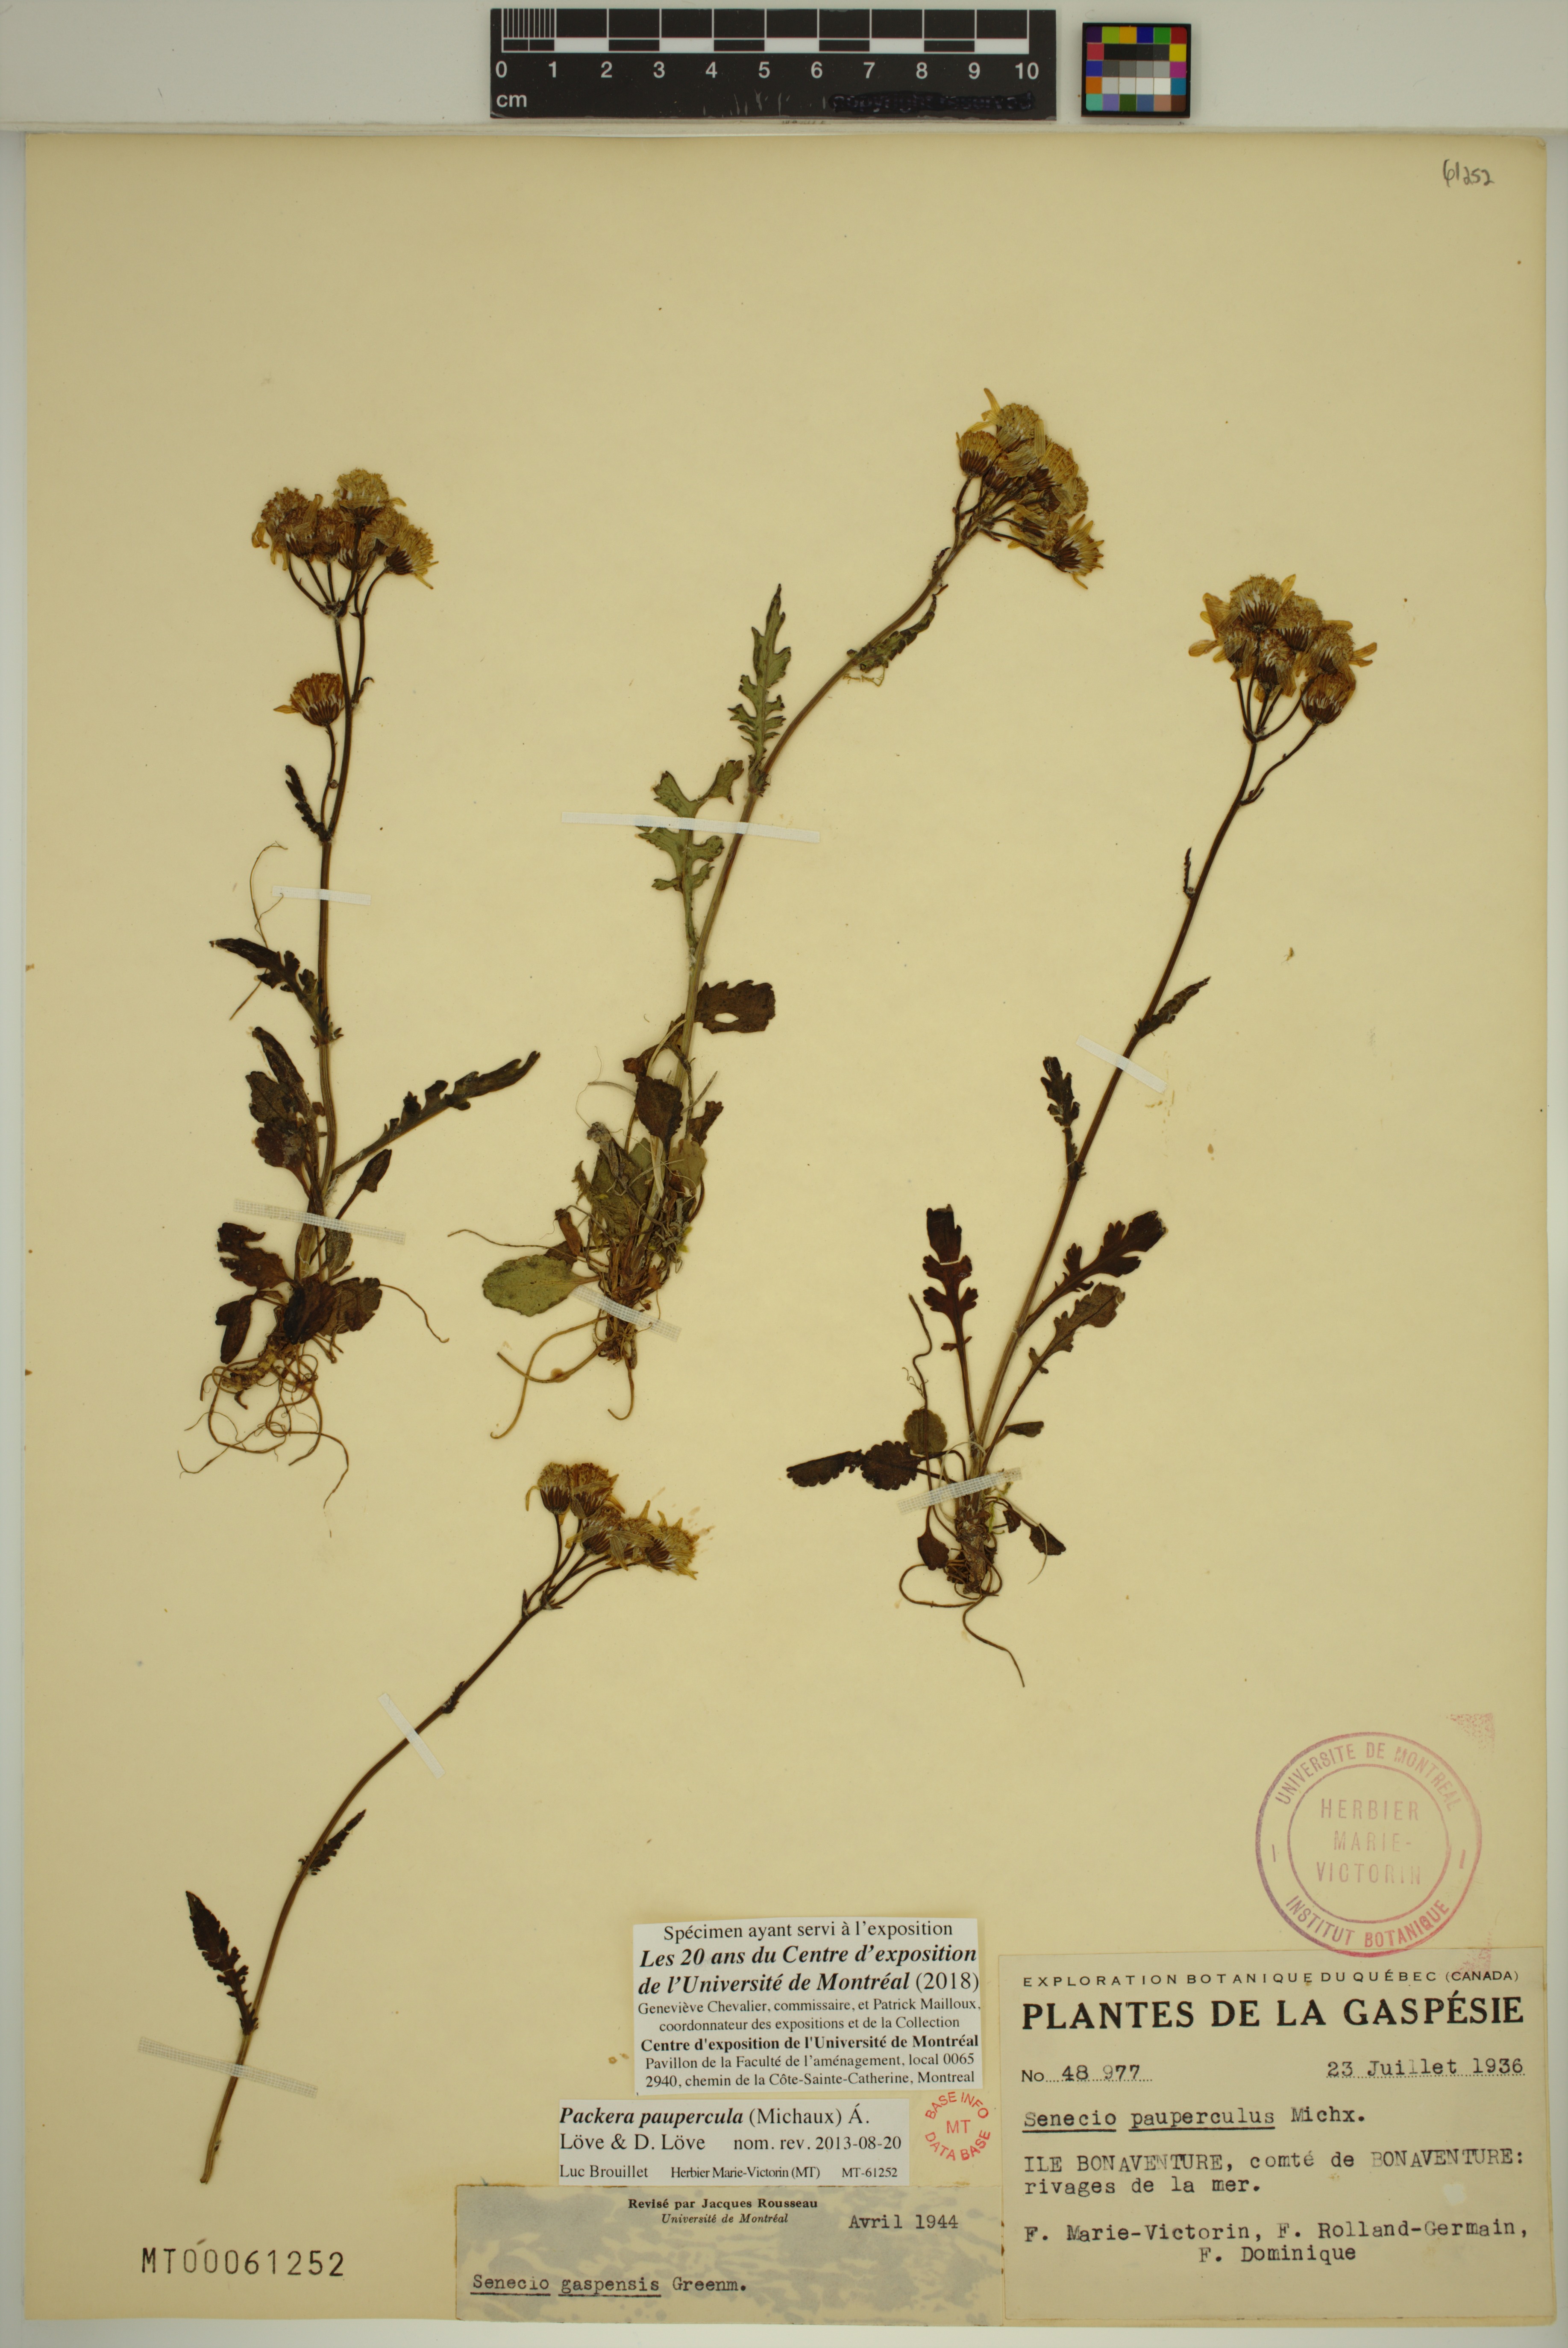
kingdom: Plantae
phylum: Tracheophyta
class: Magnoliopsida
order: Asterales
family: Asteraceae
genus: Packera
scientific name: Packera paupercula
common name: Balsam groundsel
